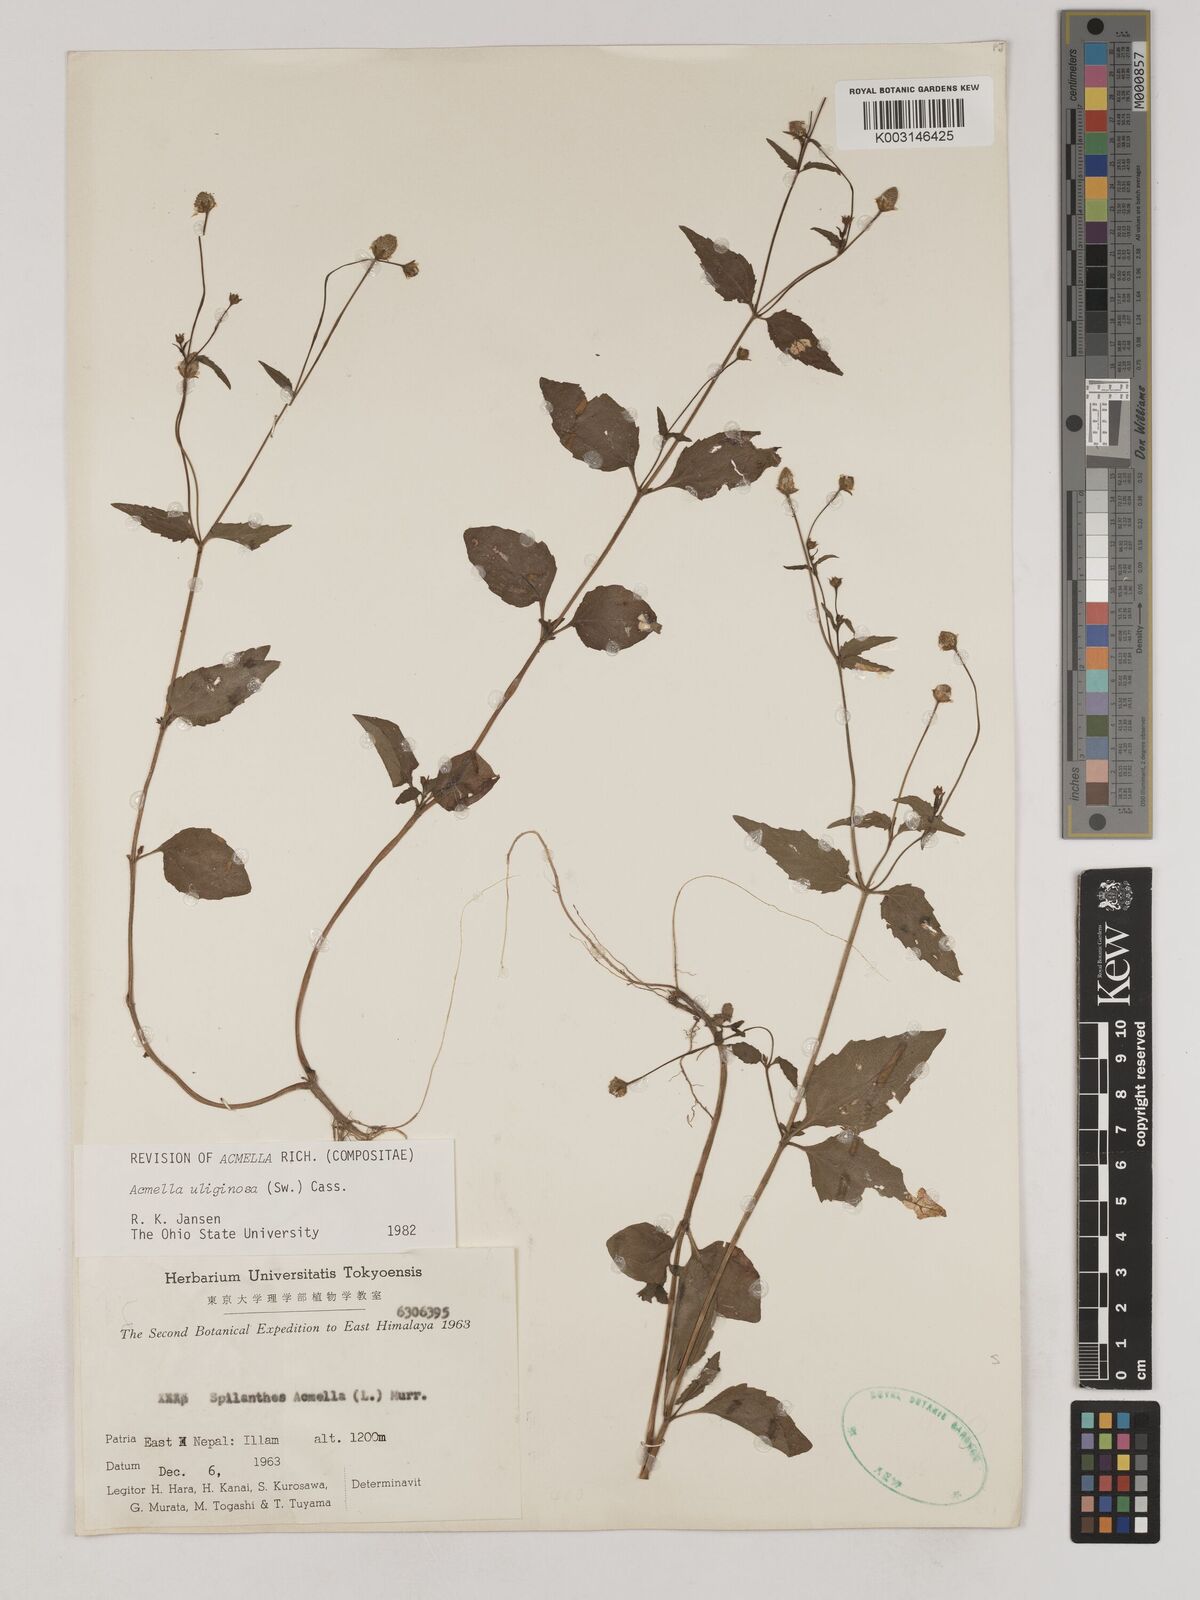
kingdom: Plantae
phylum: Tracheophyta
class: Magnoliopsida
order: Asterales
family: Asteraceae
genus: Acmella
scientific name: Acmella uliginosa
